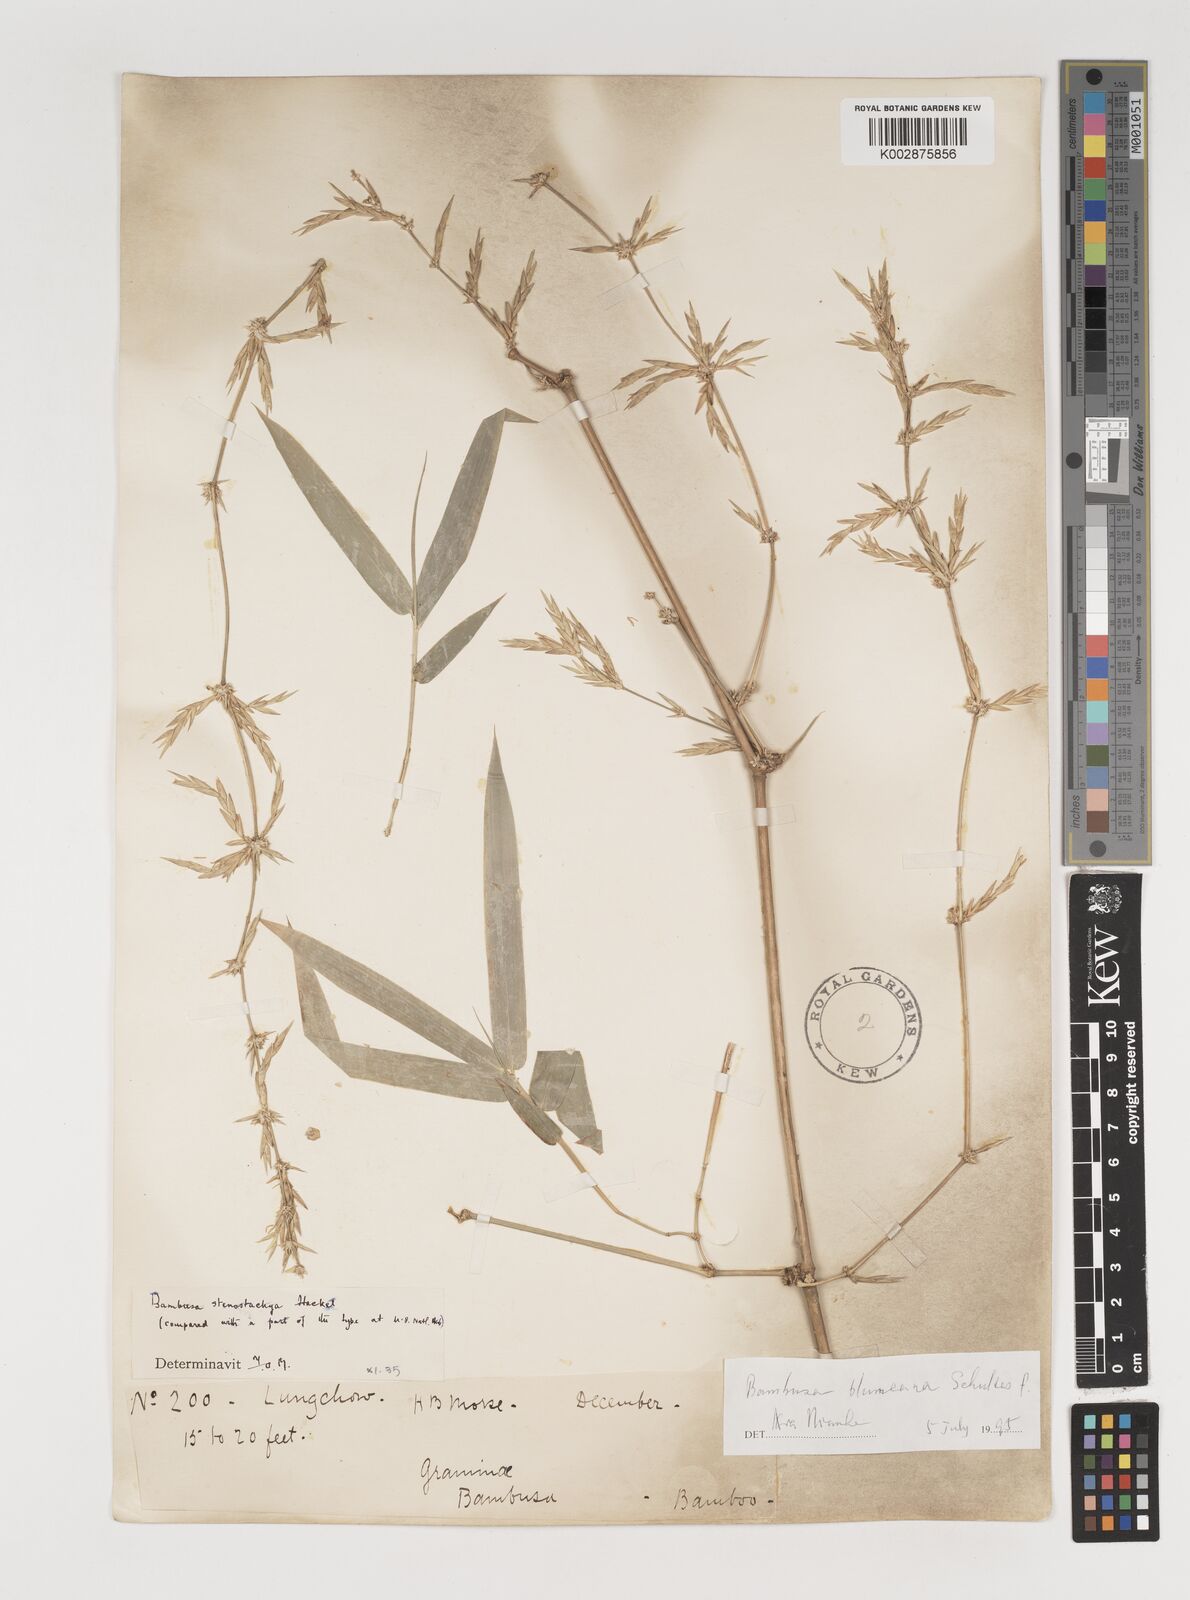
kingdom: Plantae
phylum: Tracheophyta
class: Liliopsida
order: Poales
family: Poaceae
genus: Bambusa
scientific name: Bambusa spinosa
